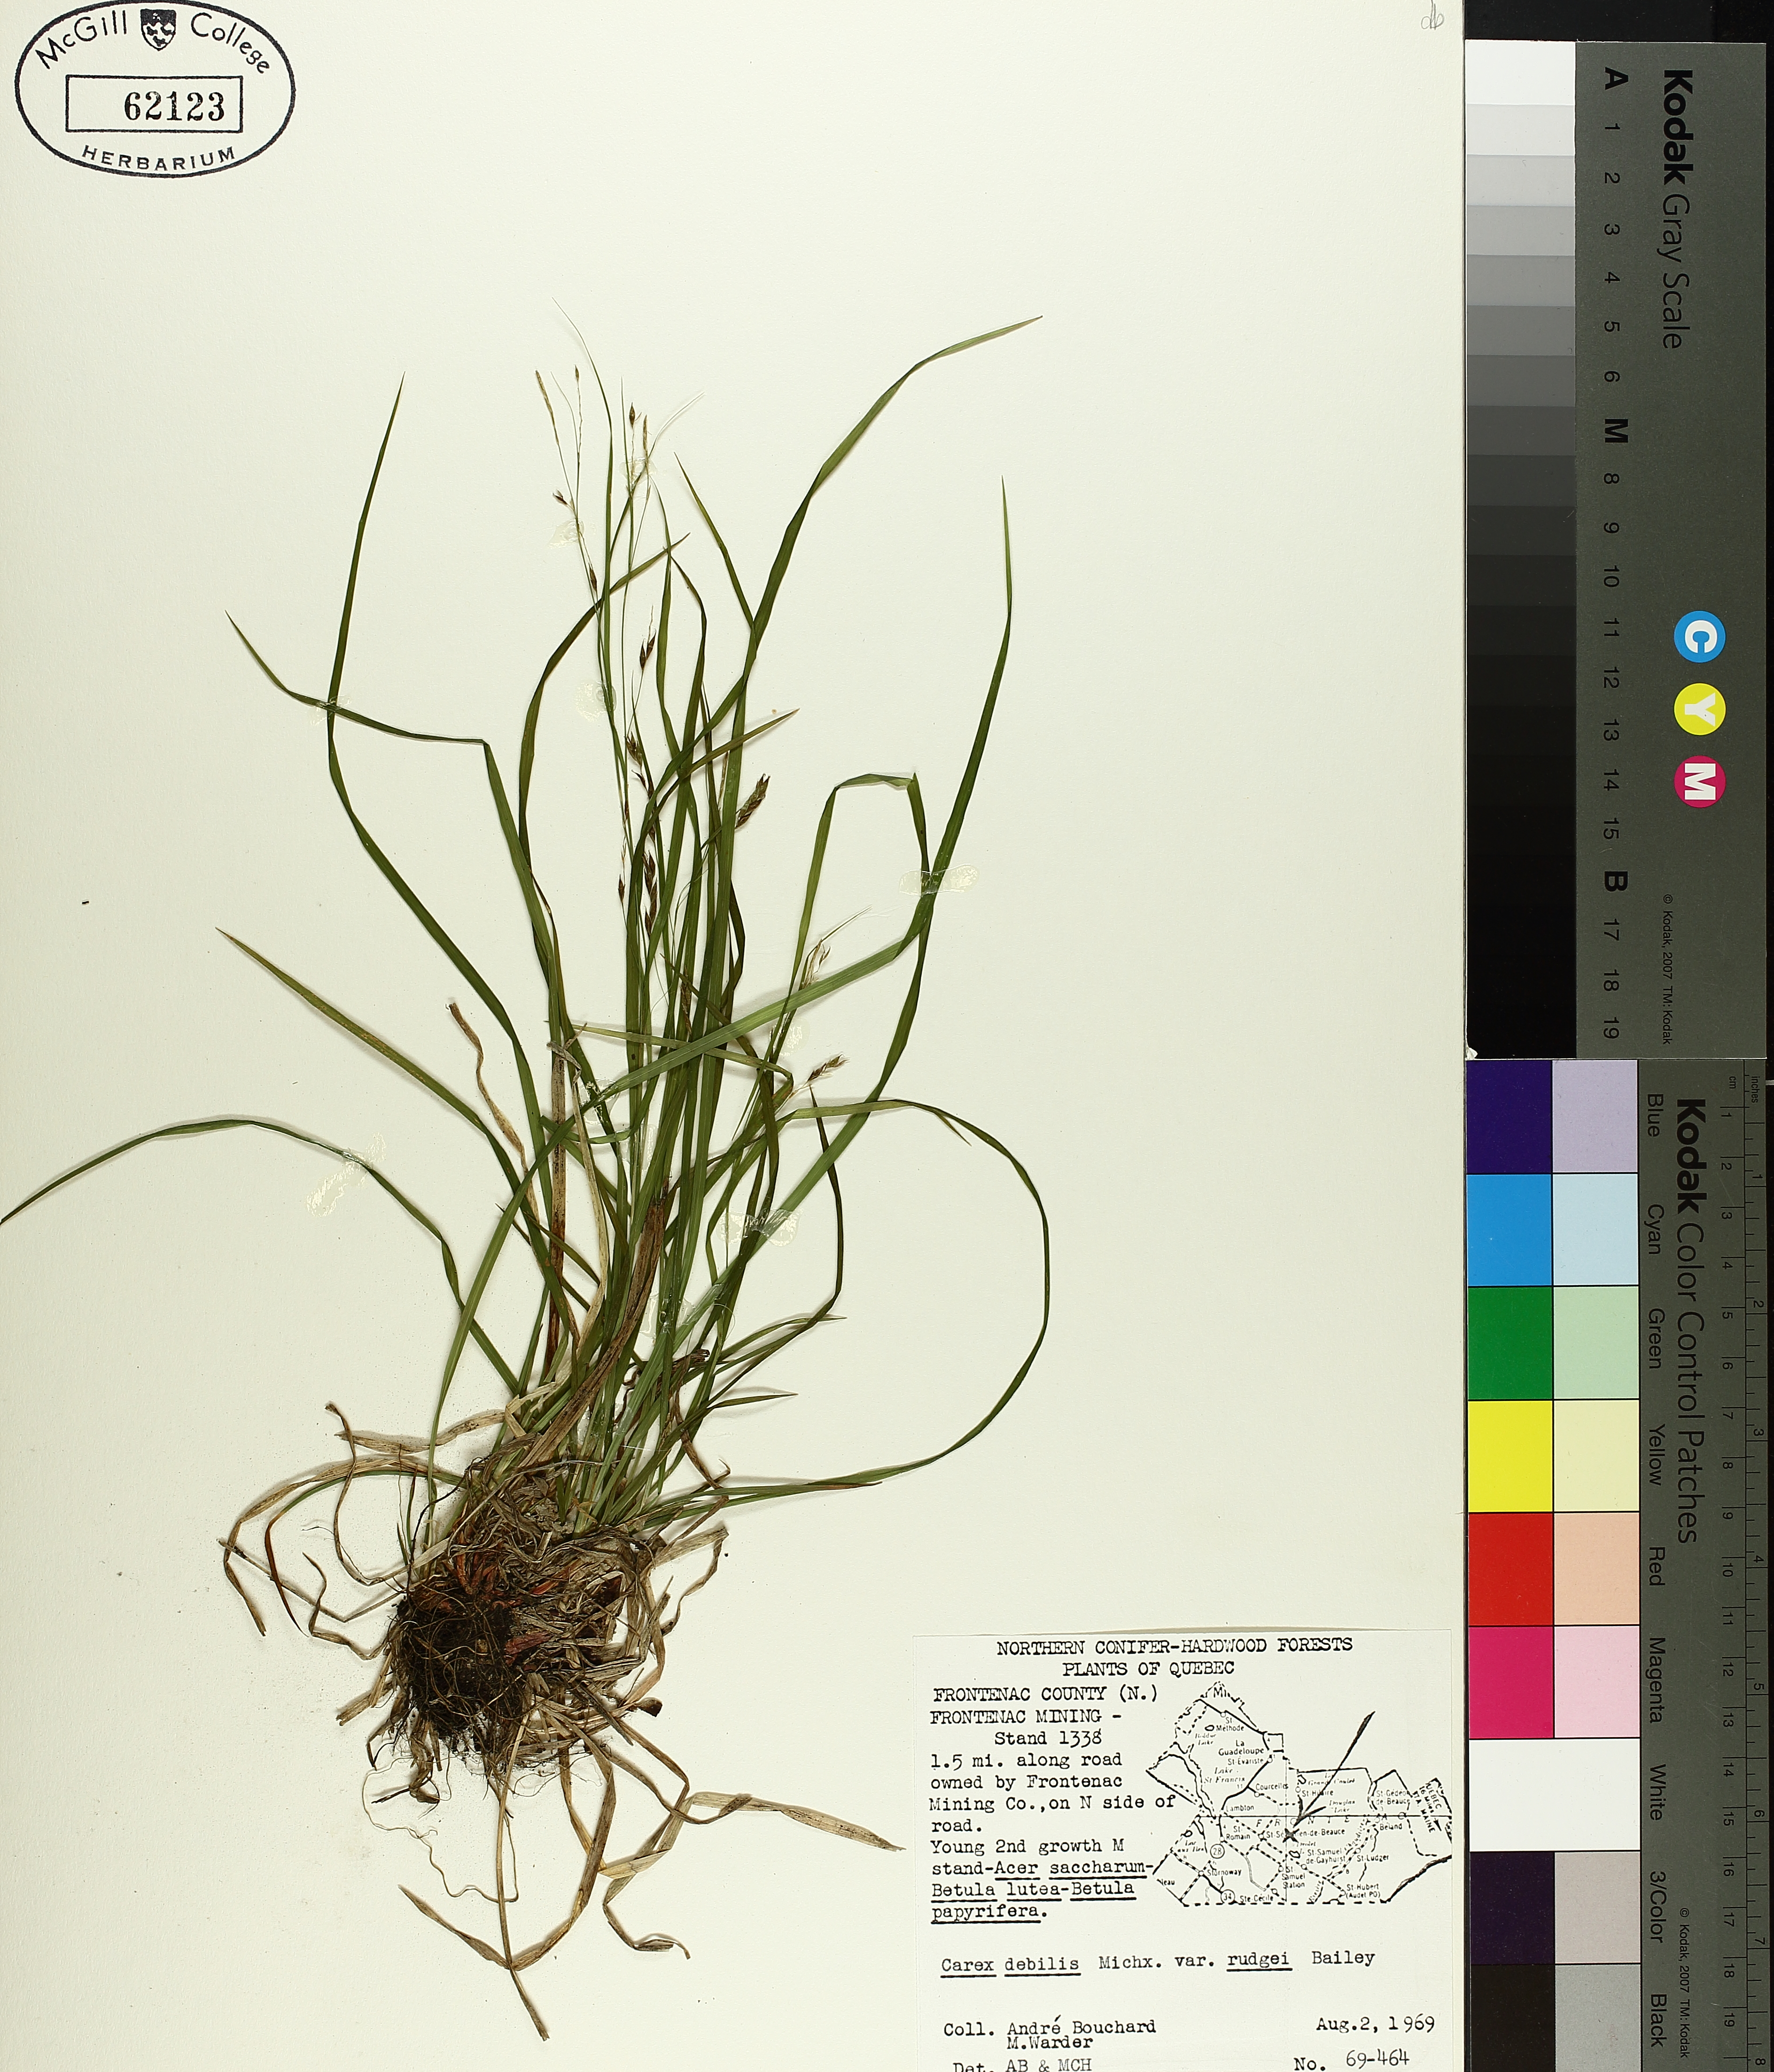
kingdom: Plantae
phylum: Tracheophyta
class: Liliopsida
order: Poales
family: Cyperaceae
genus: Carex
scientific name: Carex debilis
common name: White-edge sedge
